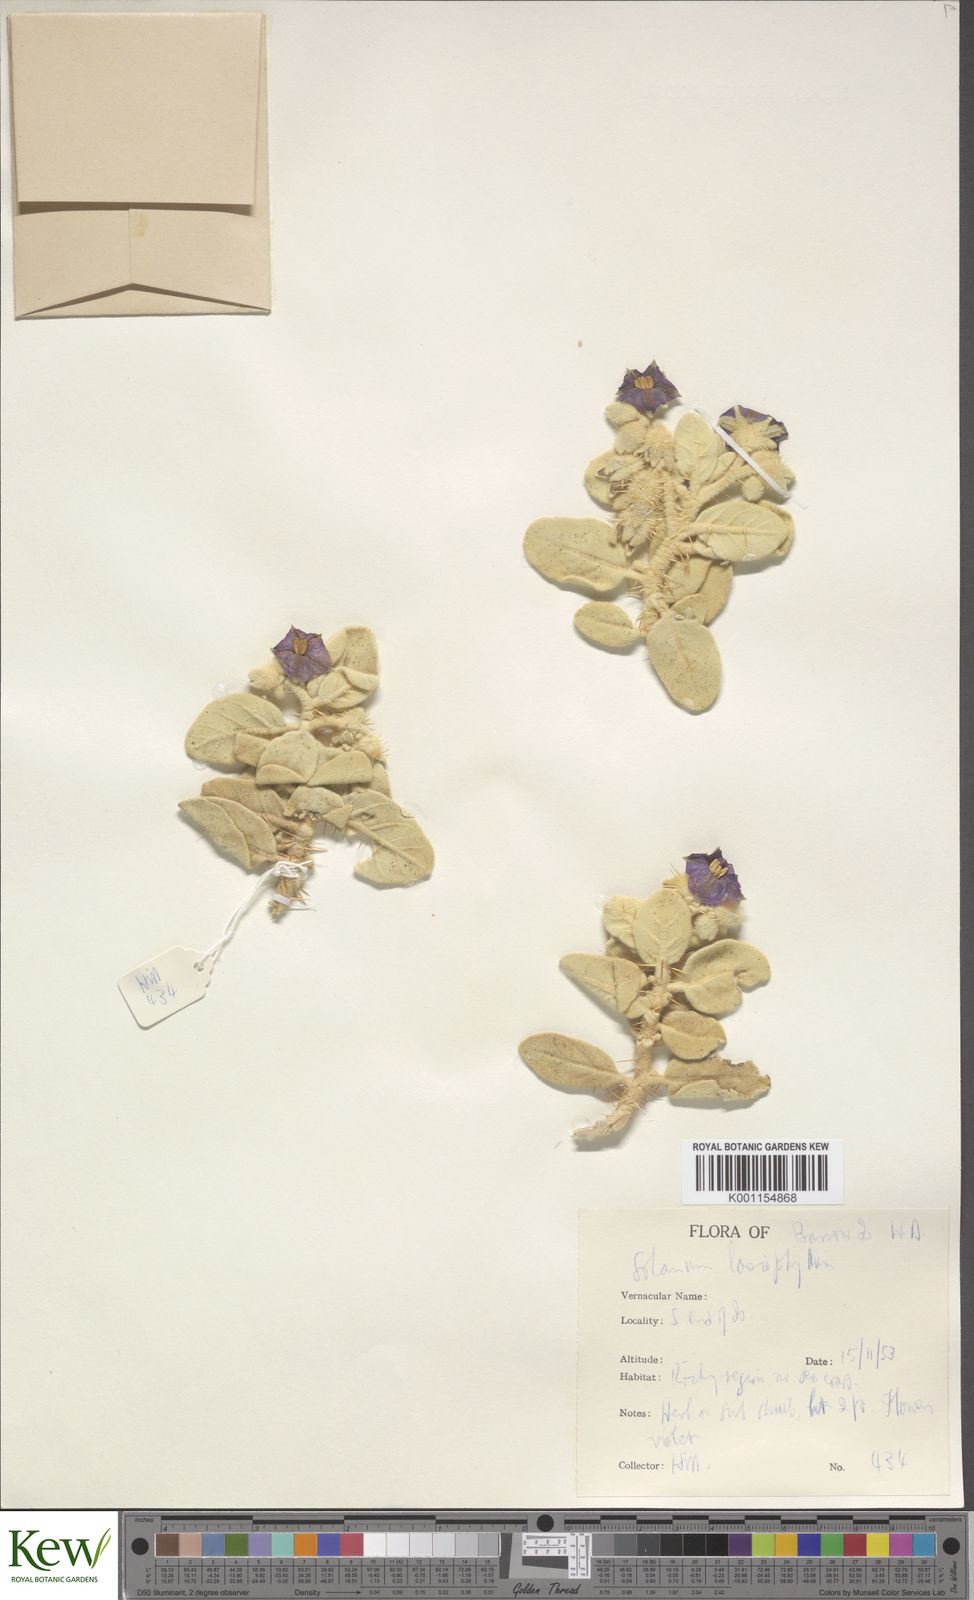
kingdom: Plantae
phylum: Tracheophyta
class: Magnoliopsida
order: Solanales
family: Solanaceae
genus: Solanum
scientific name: Solanum lasiophyllum
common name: Flannelbush
